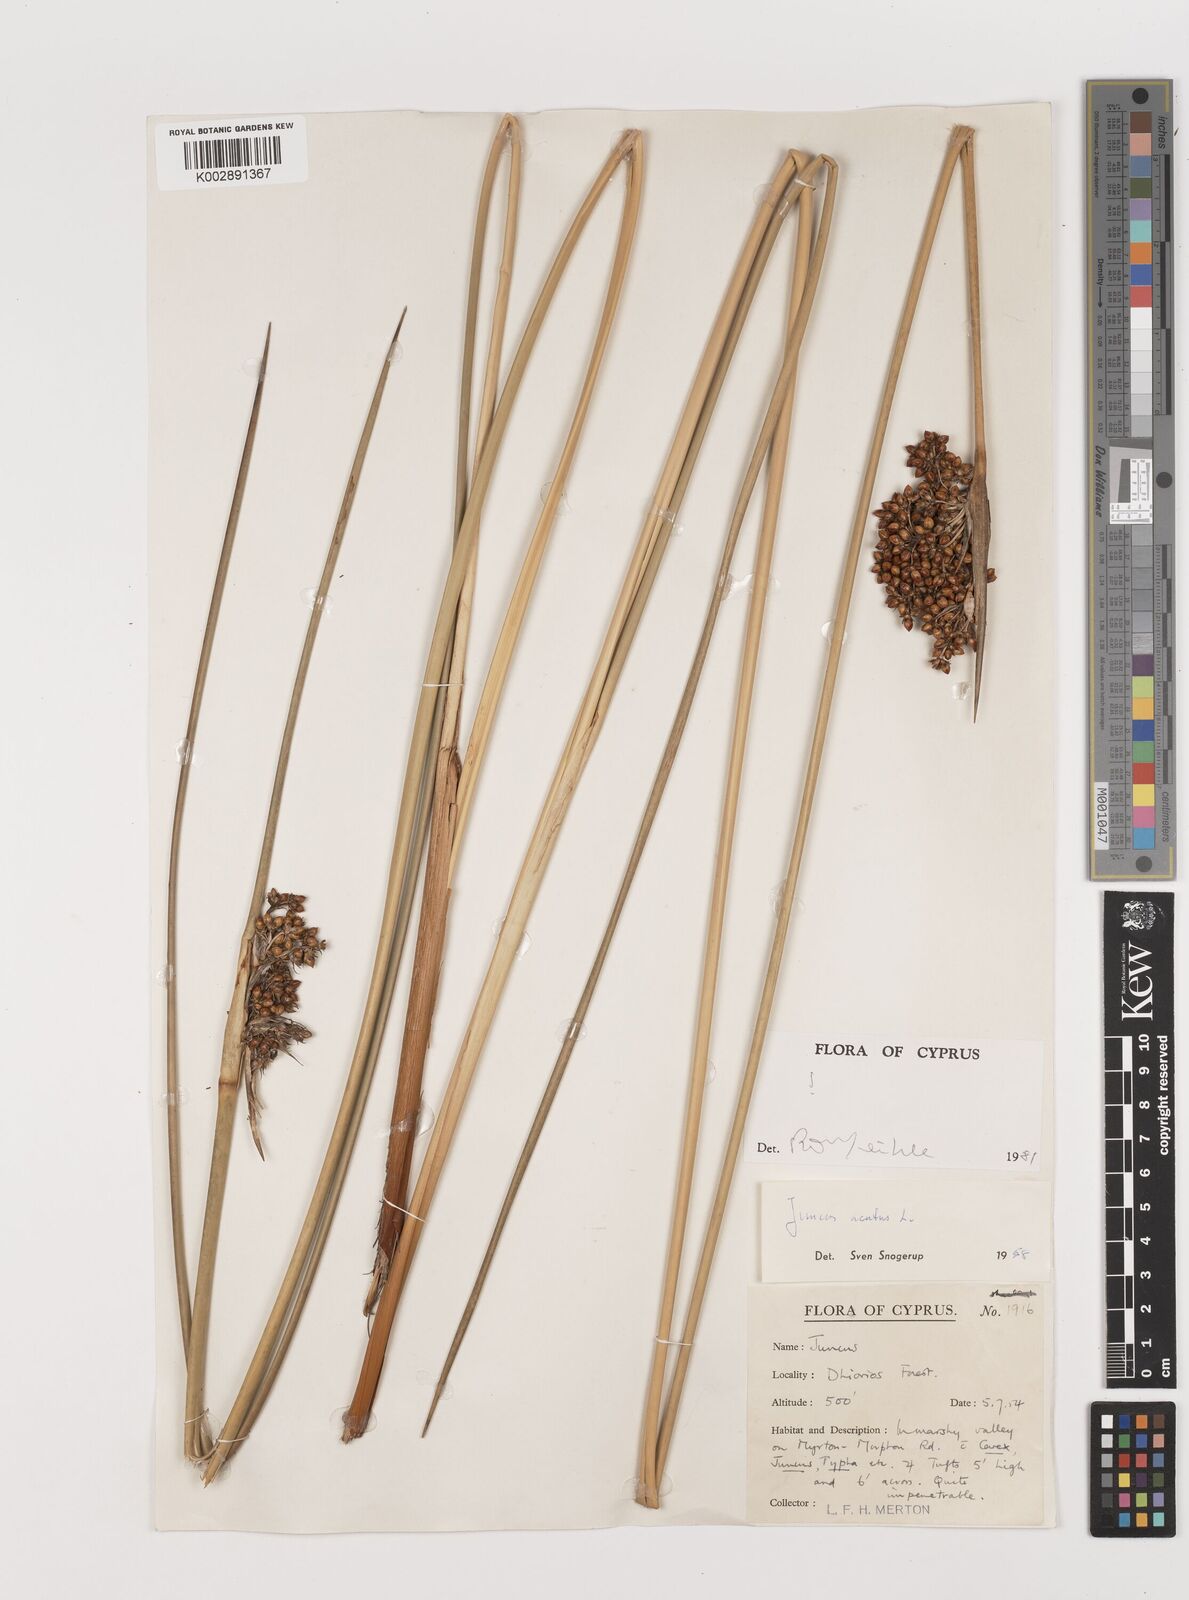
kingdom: Plantae
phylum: Tracheophyta
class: Liliopsida
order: Poales
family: Juncaceae
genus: Juncus
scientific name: Juncus acutus
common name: Sharp rush
